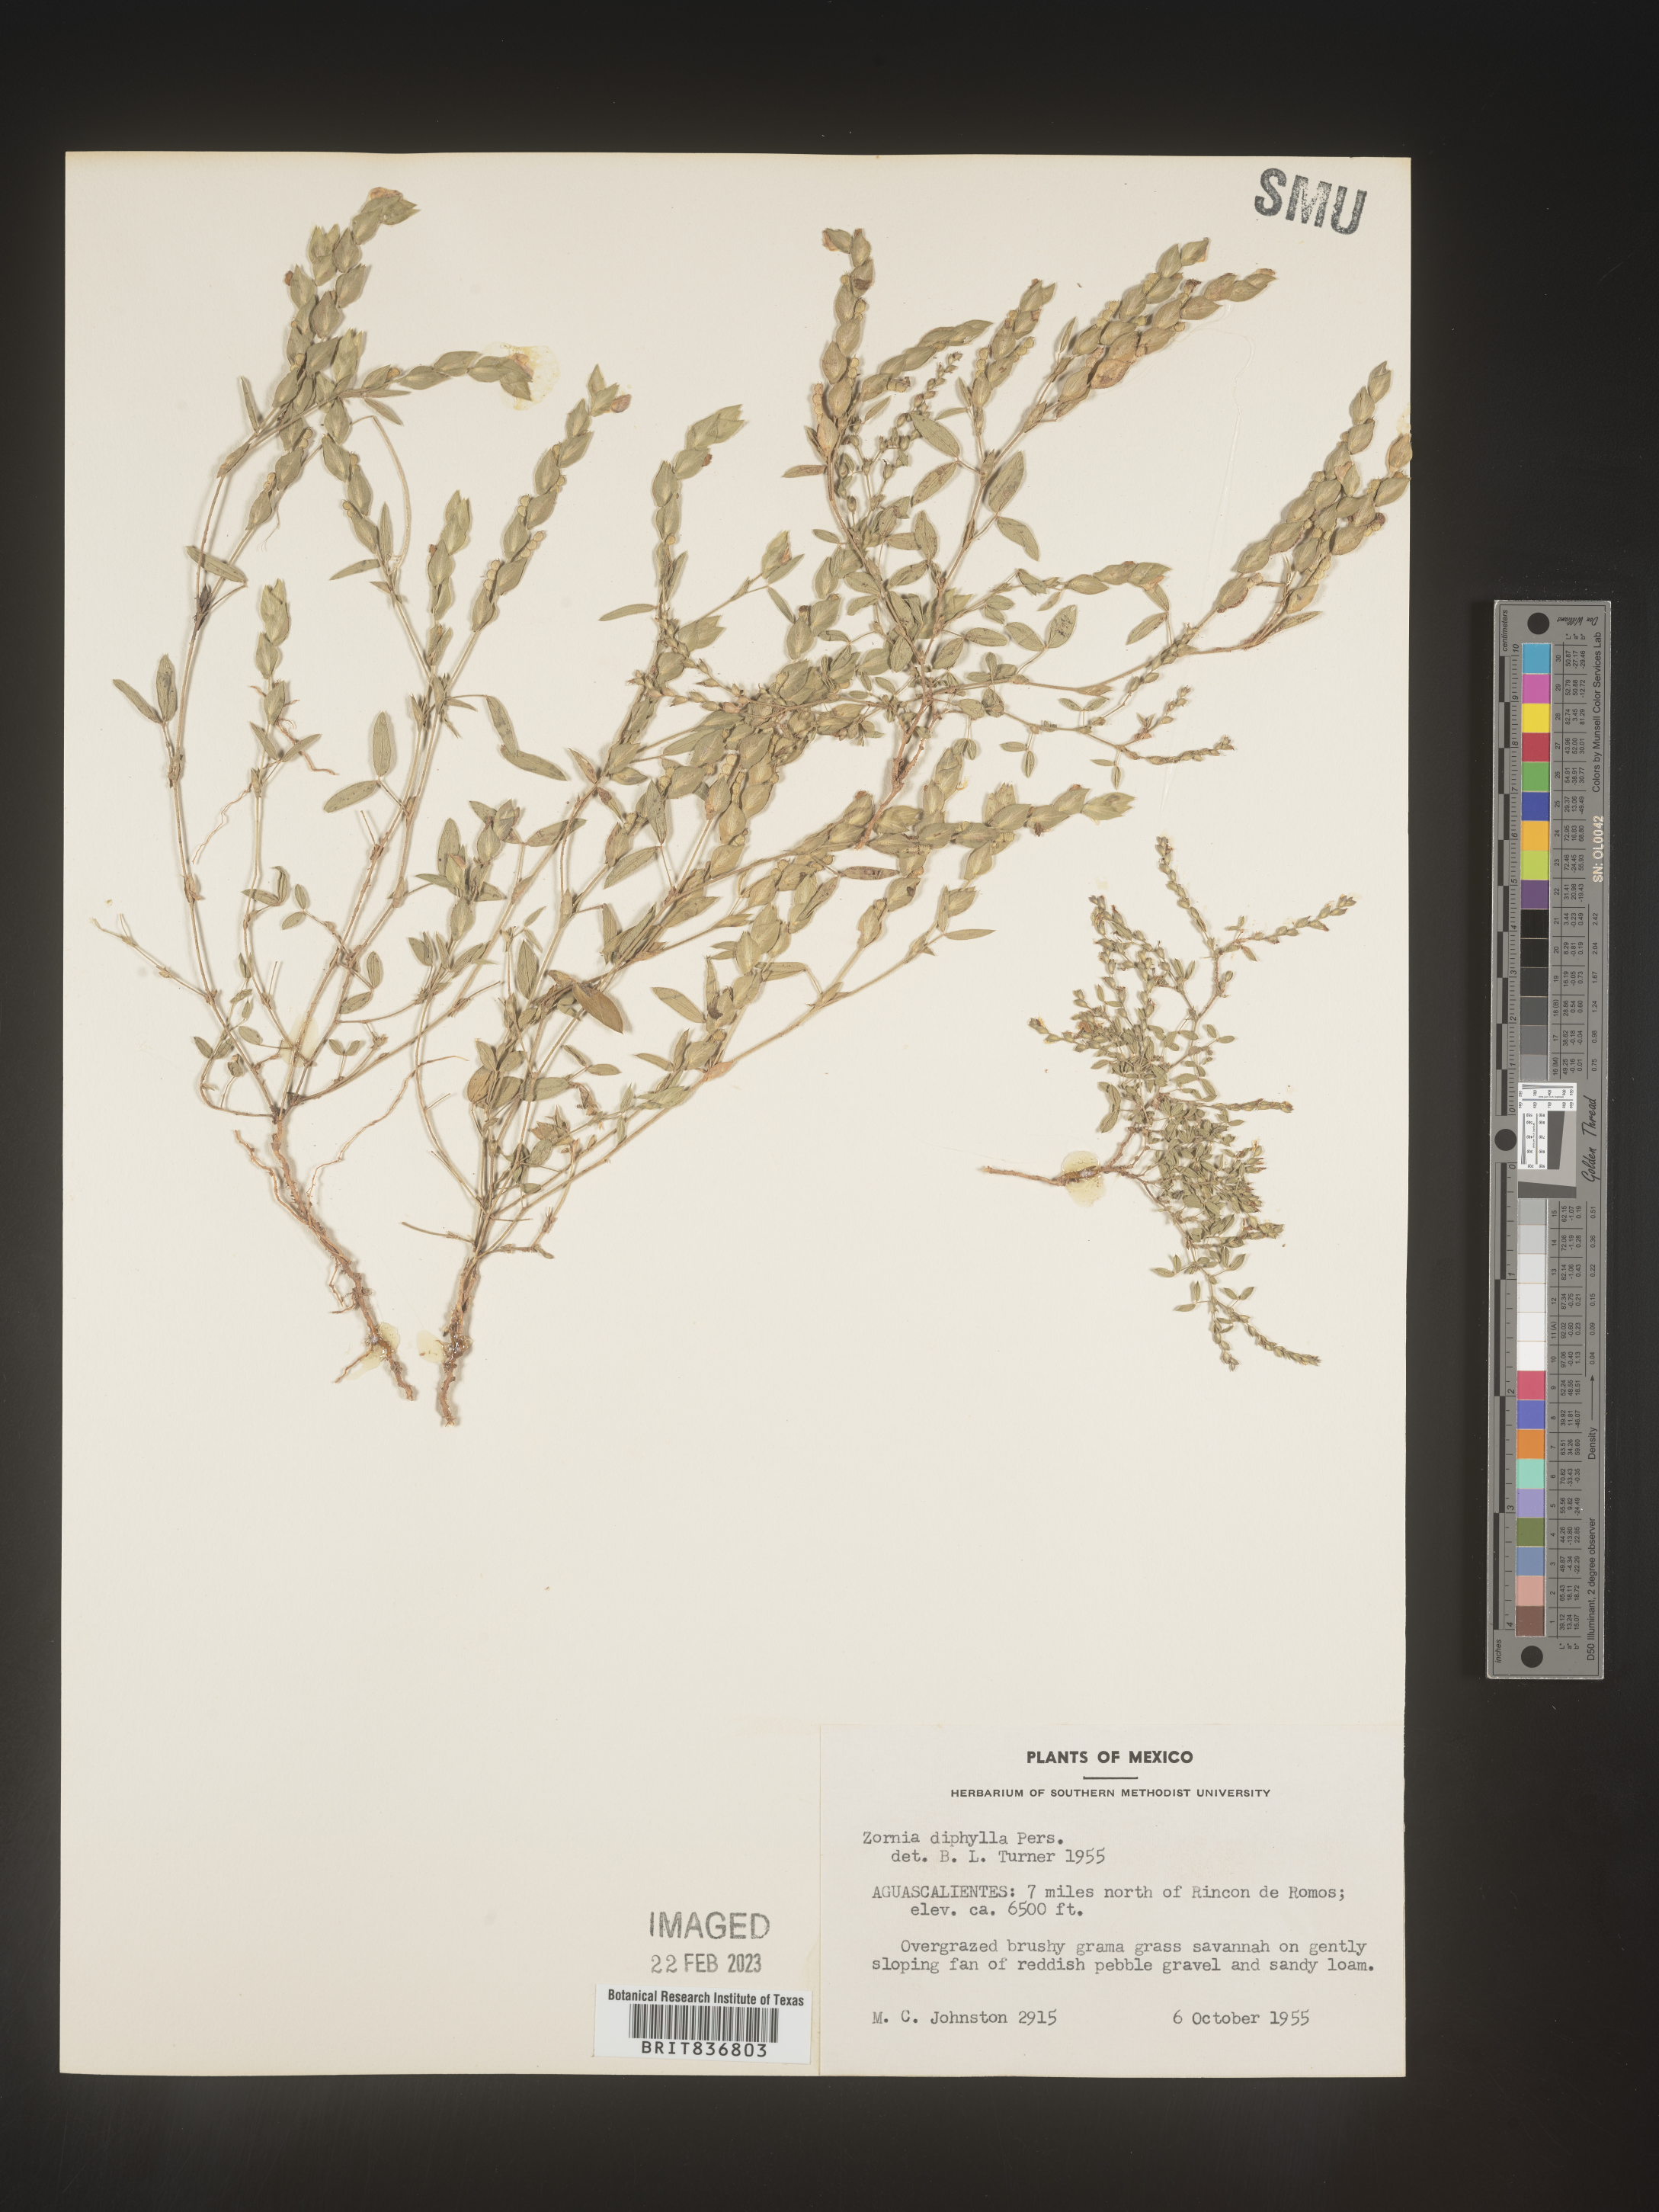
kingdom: Plantae
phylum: Tracheophyta
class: Magnoliopsida
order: Fabales
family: Fabaceae
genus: Zornia
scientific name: Zornia
